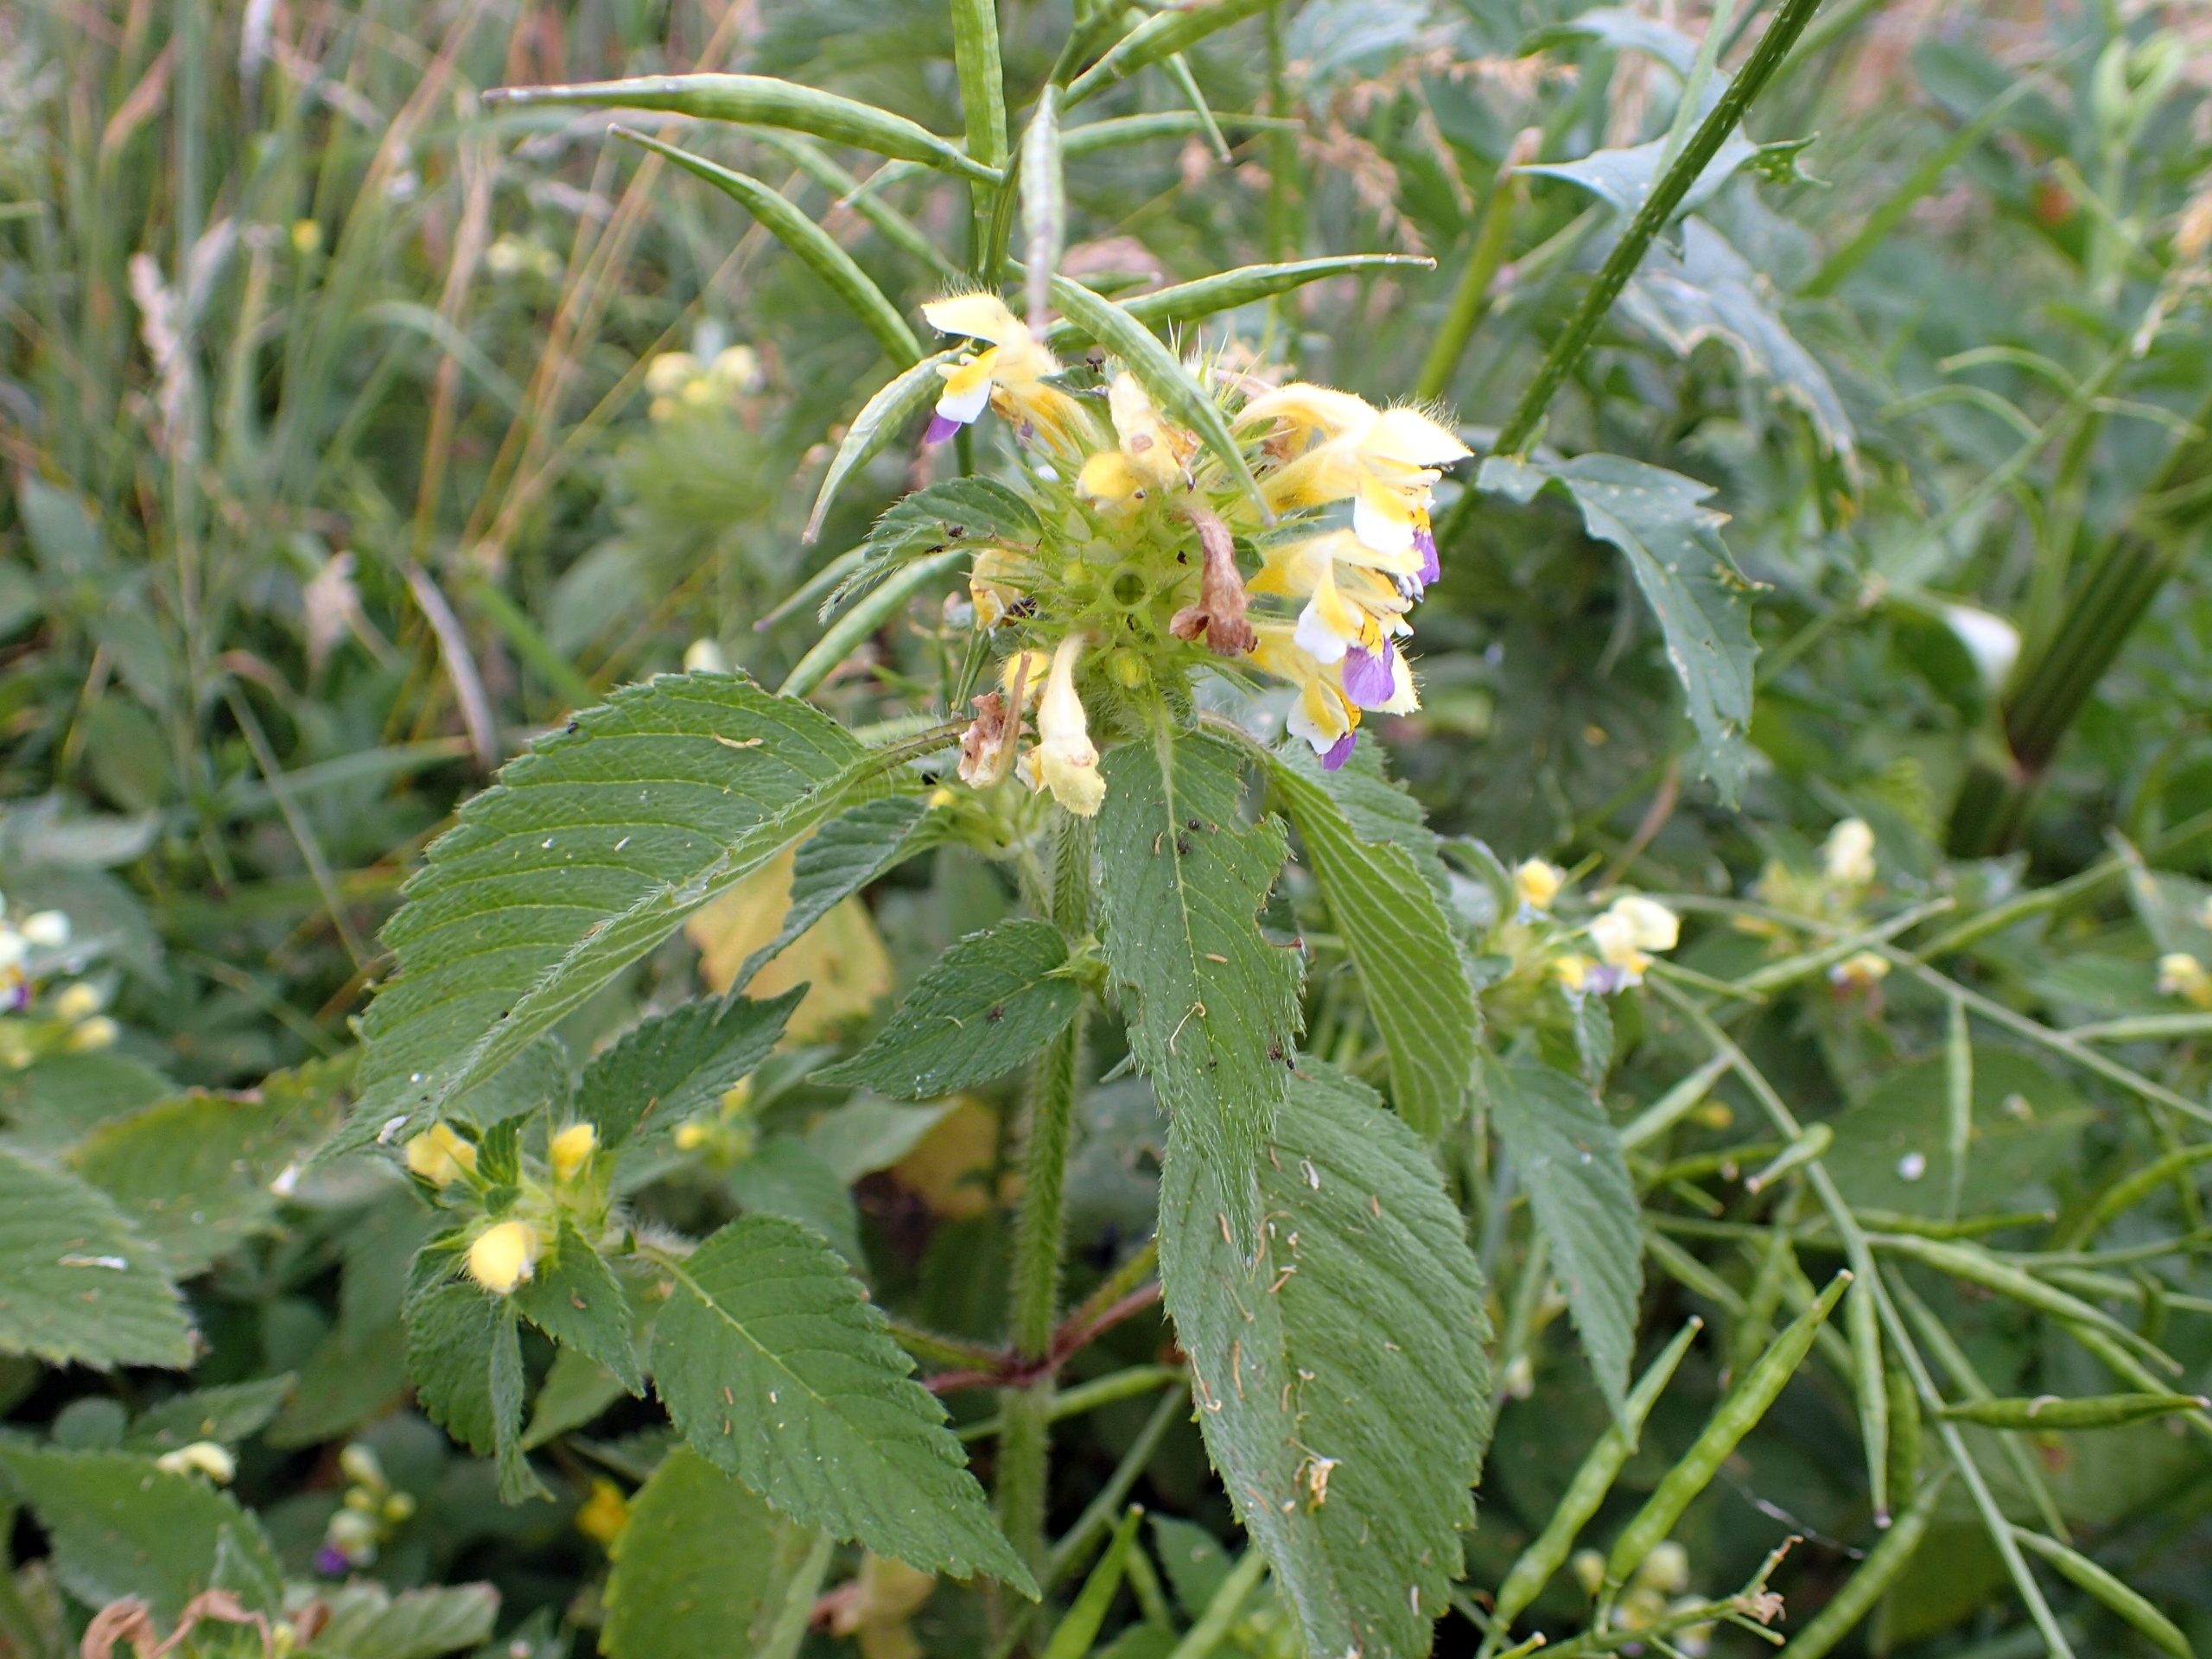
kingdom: Plantae
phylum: Tracheophyta
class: Magnoliopsida
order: Lamiales
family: Lamiaceae
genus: Galeopsis
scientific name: Galeopsis speciosa
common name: Hamp-hanekro
